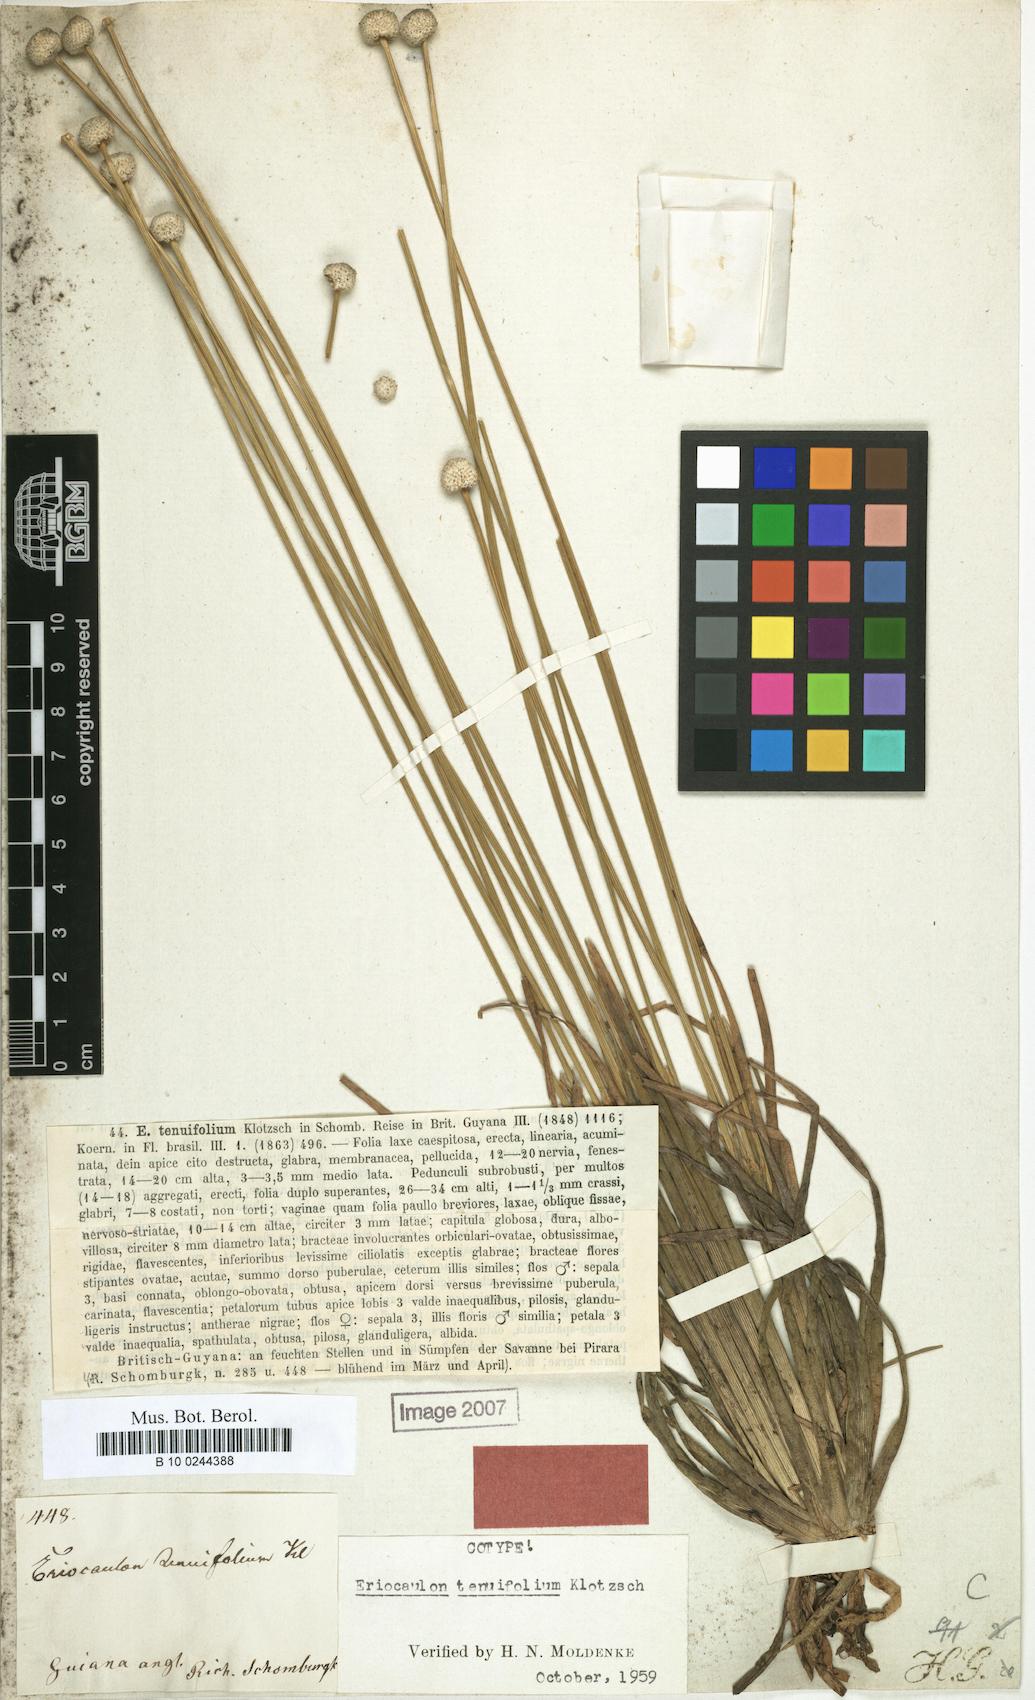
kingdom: Plantae
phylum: Tracheophyta
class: Liliopsida
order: Poales
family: Eriocaulaceae
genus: Eriocaulon
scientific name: Eriocaulon tenuifolium
